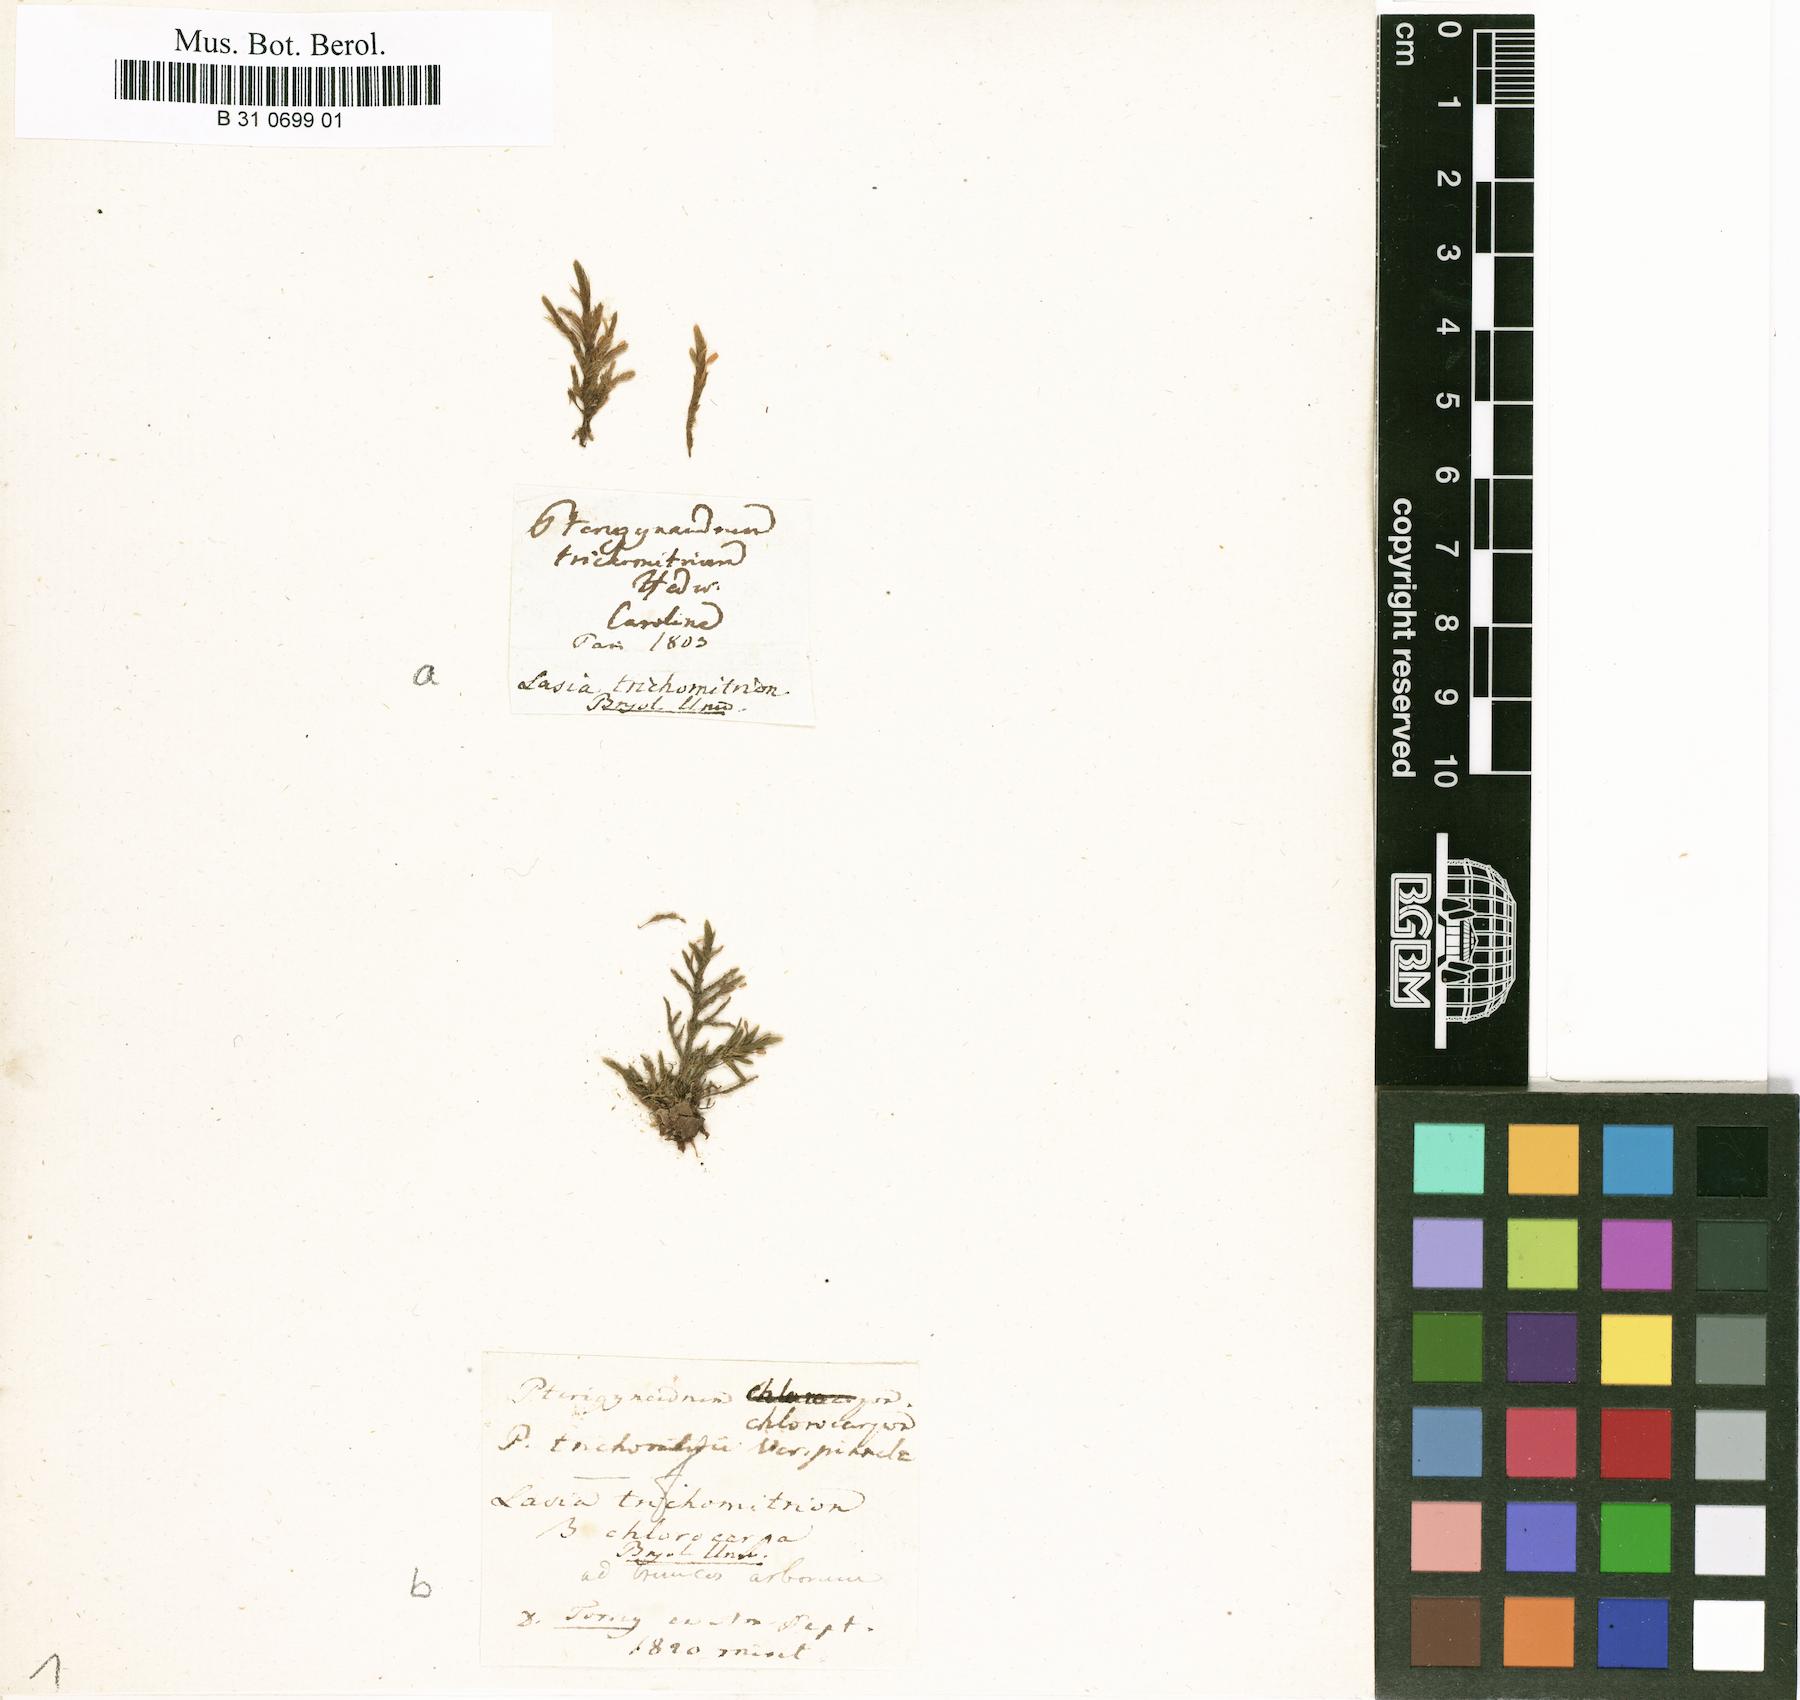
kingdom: Plantae
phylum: Bryophyta
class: Bryopsida
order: Hypnales
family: Neckeraceae
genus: Forsstroemia
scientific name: Forsstroemia trichomitria
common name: Fan moss
